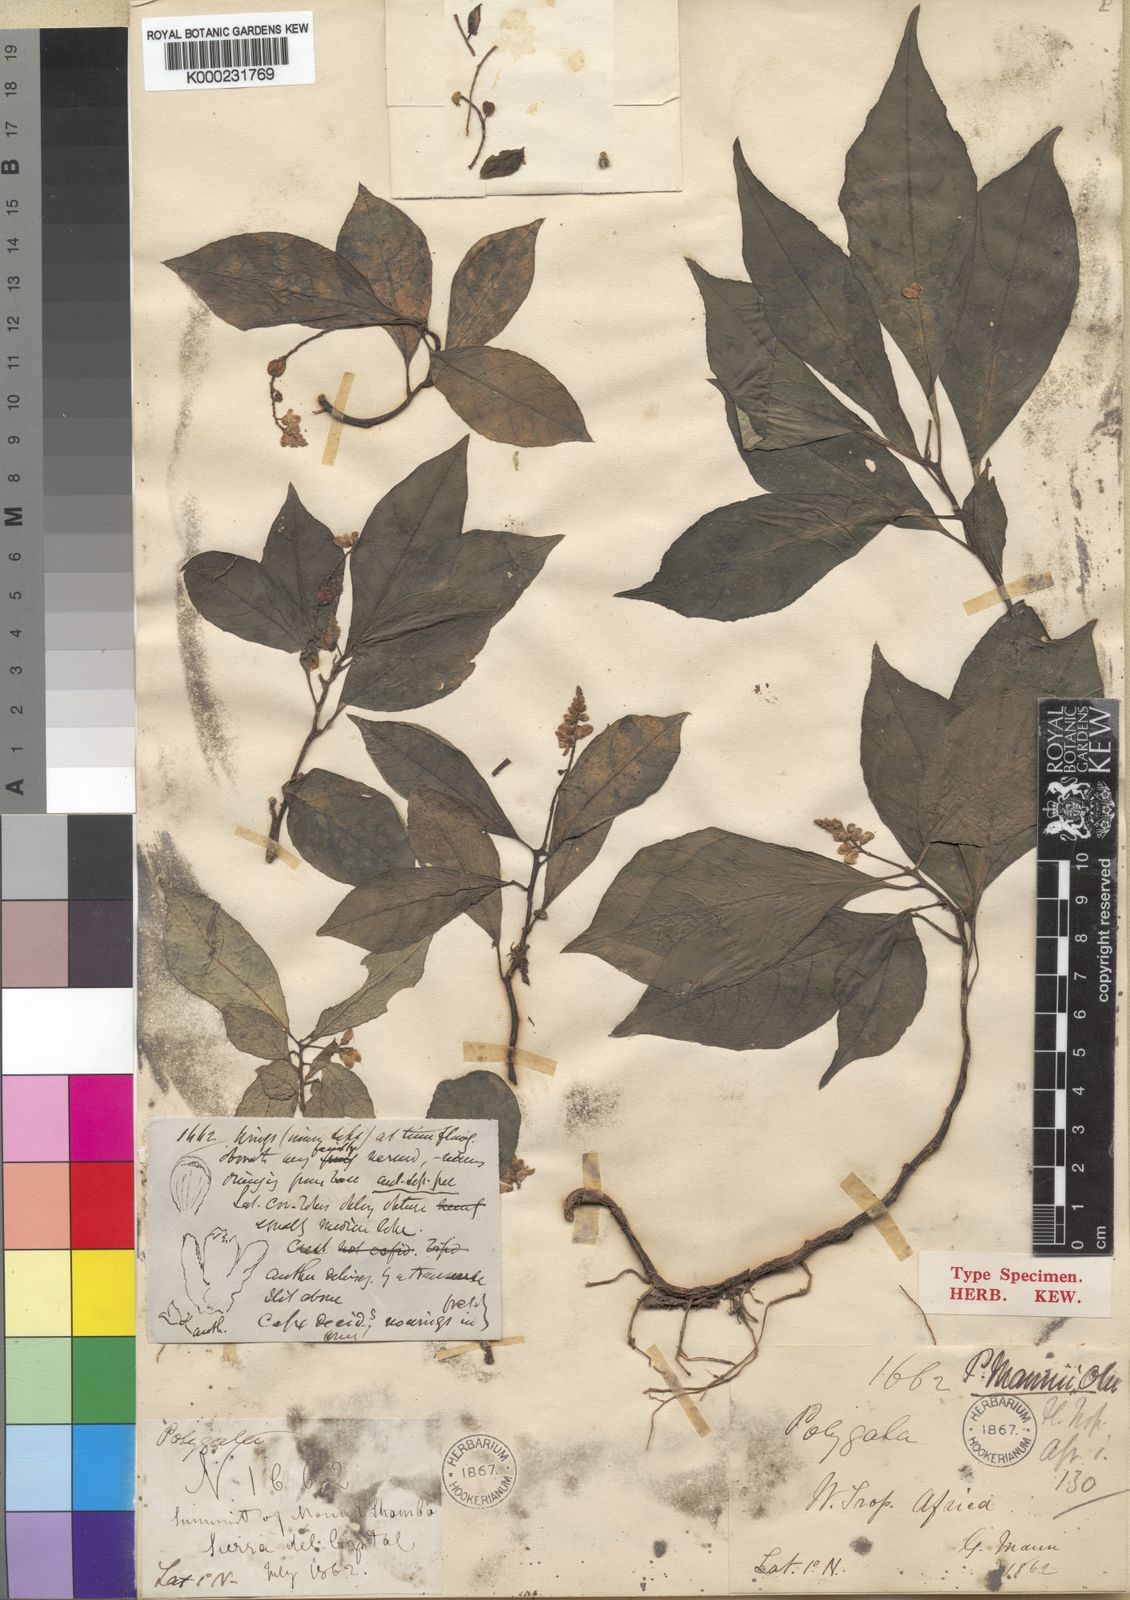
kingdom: Plantae
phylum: Tracheophyta
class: Magnoliopsida
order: Fabales
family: Polygalaceae
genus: Polygala
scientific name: Polygala mannii
